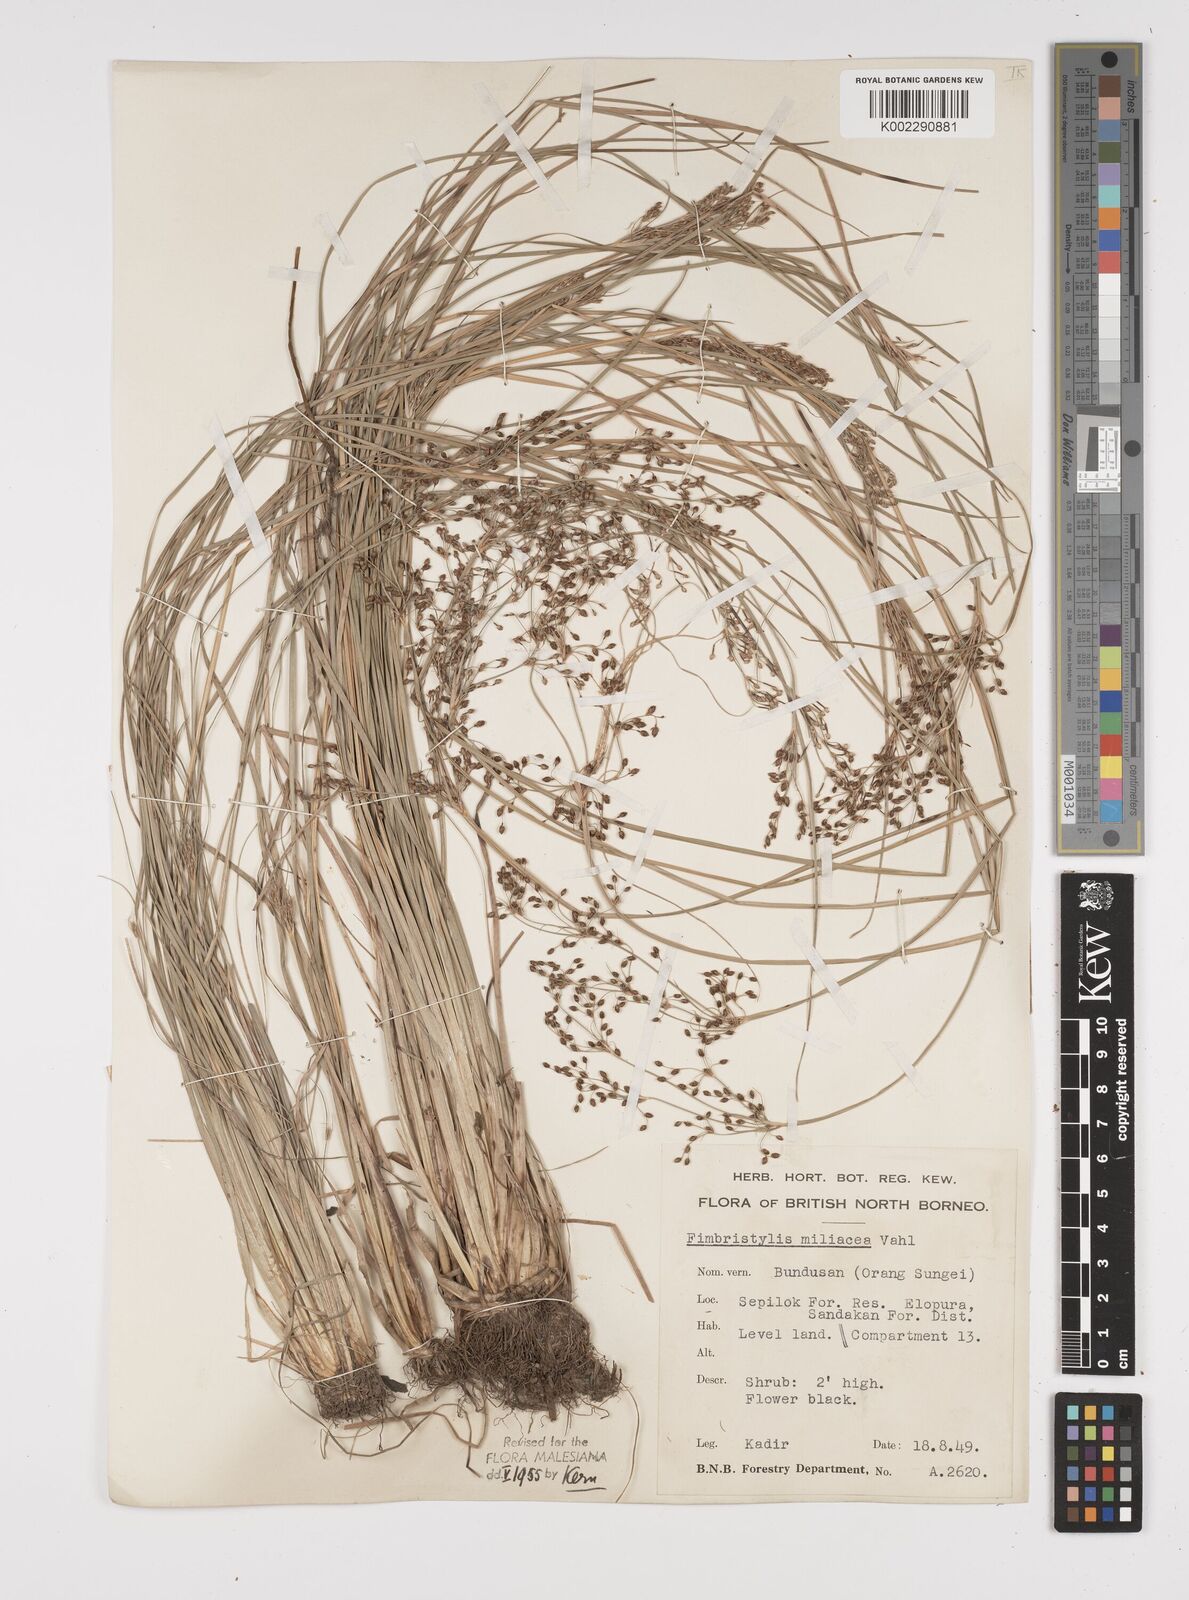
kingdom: Plantae
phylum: Tracheophyta
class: Liliopsida
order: Poales
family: Cyperaceae
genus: Fimbristylis
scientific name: Fimbristylis littoralis
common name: Fimbry
